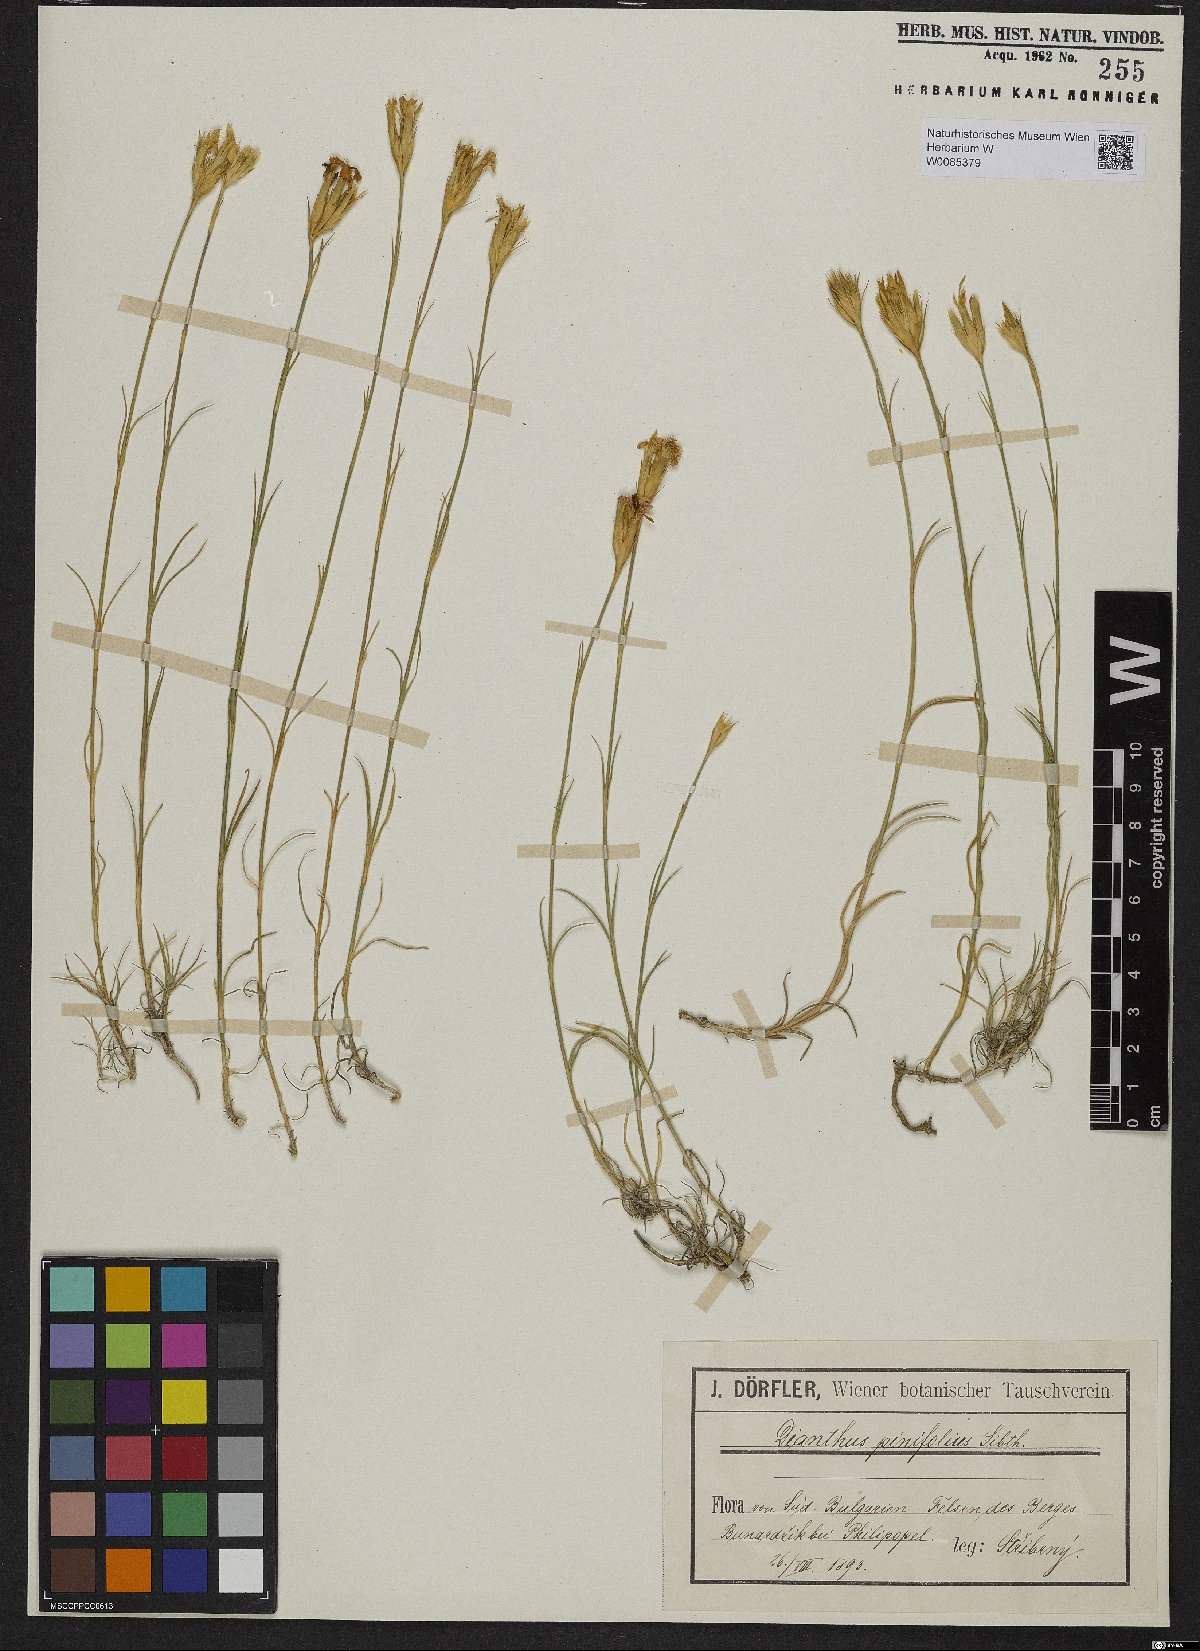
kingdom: Plantae
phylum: Tracheophyta
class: Magnoliopsida
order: Caryophyllales
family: Caryophyllaceae
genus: Dianthus
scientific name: Dianthus pinifolius
